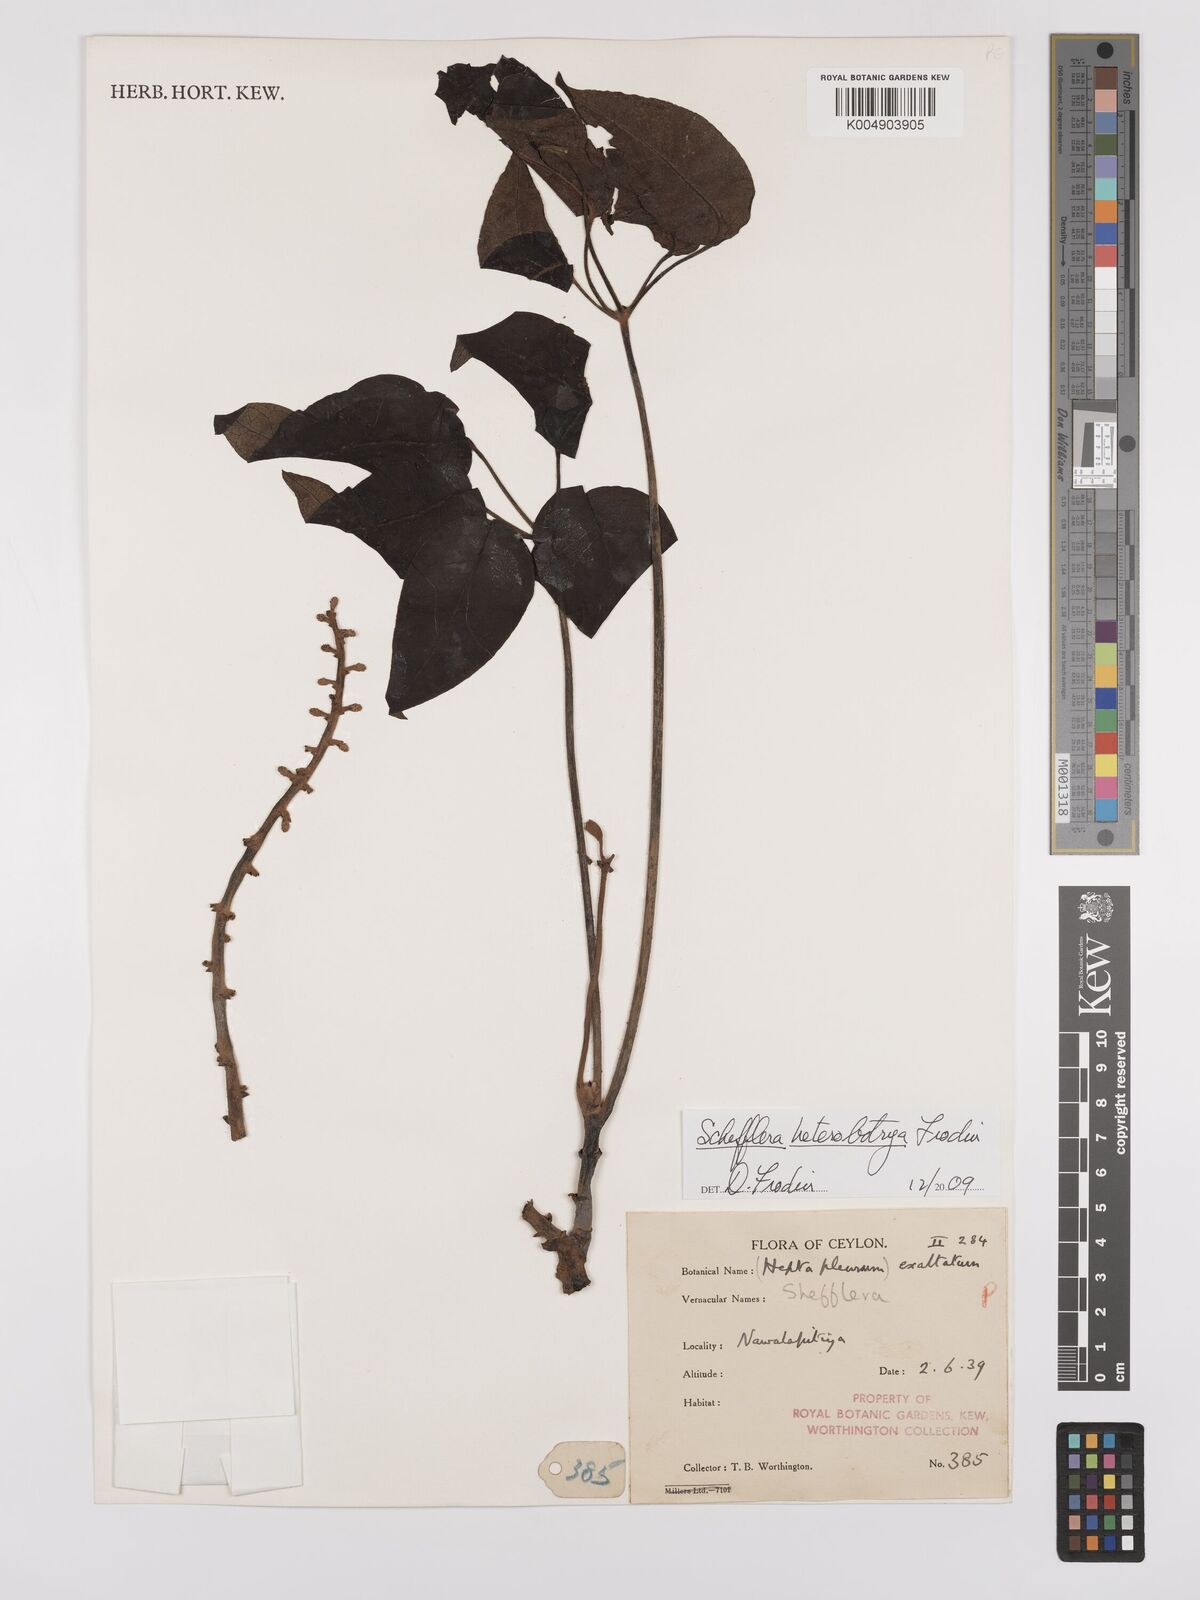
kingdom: Plantae
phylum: Tracheophyta
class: Magnoliopsida
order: Apiales
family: Araliaceae
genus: Heptapleurum
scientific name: Heptapleurum
